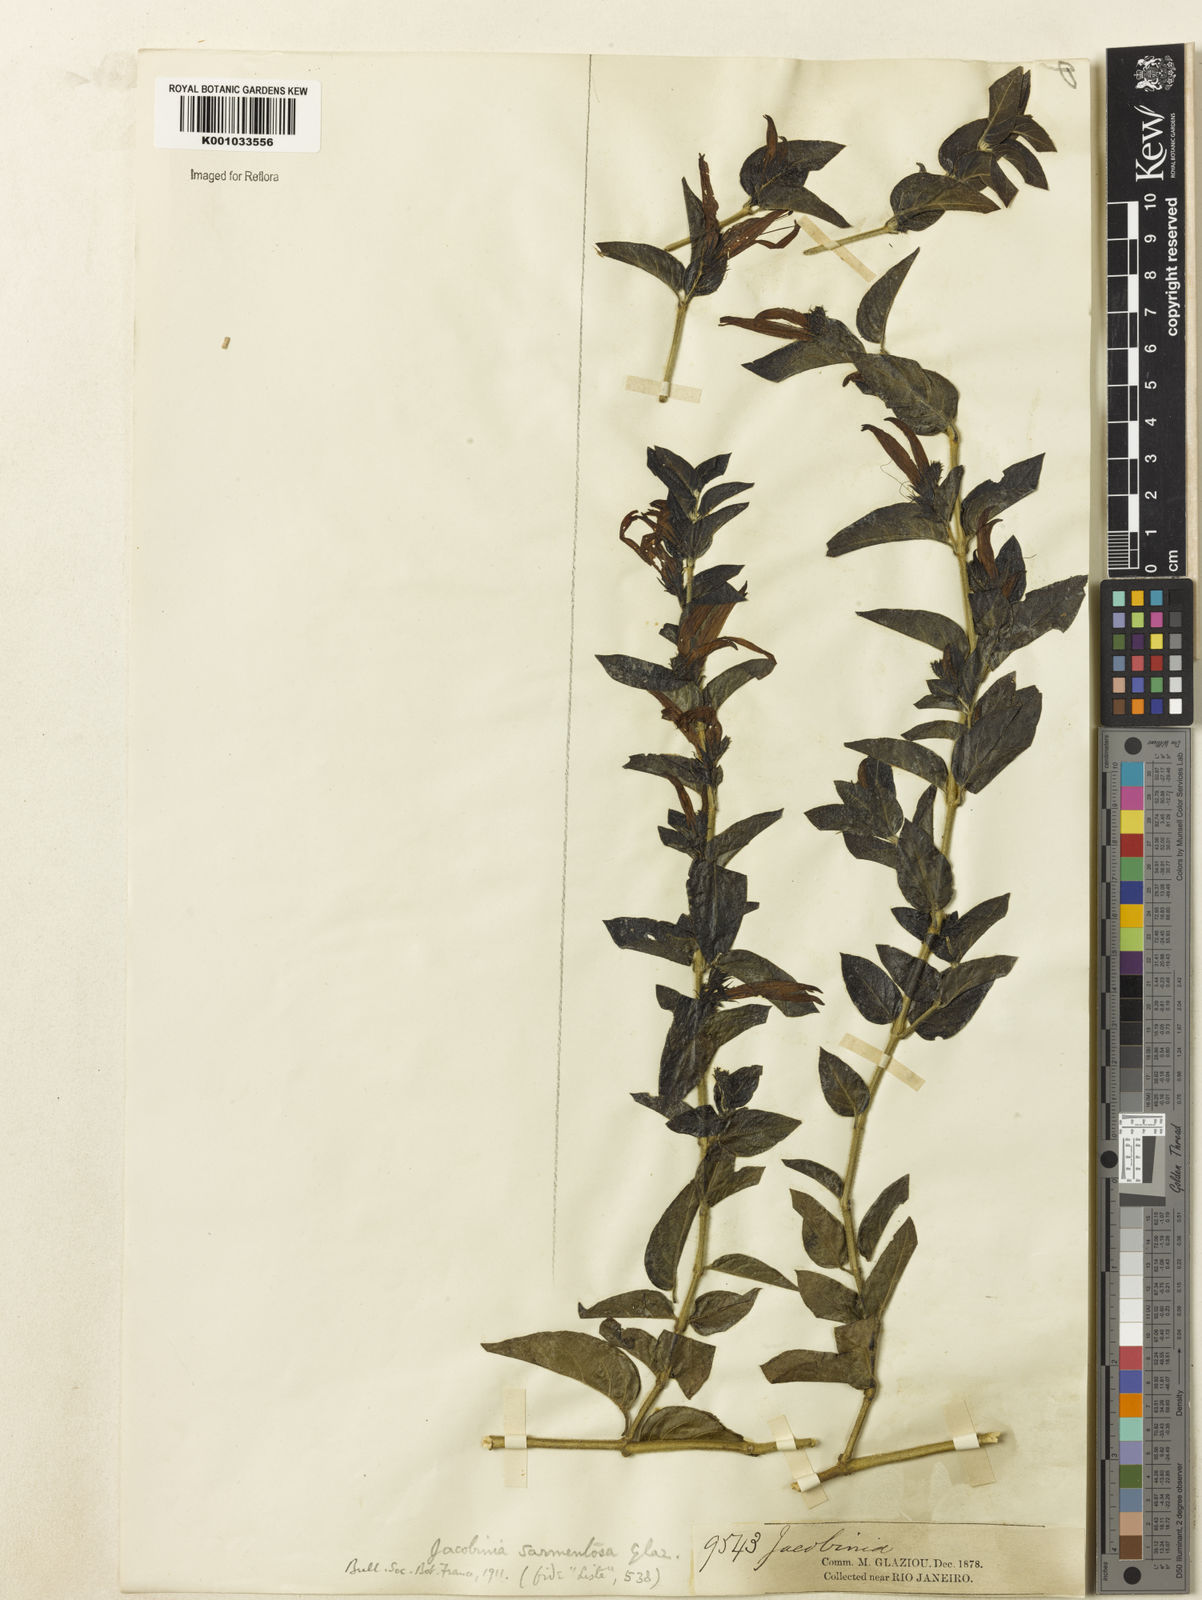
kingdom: Plantae
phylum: Tracheophyta
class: Magnoliopsida
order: Lamiales
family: Acanthaceae
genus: Justicia
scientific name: Justicia sarmentosa
